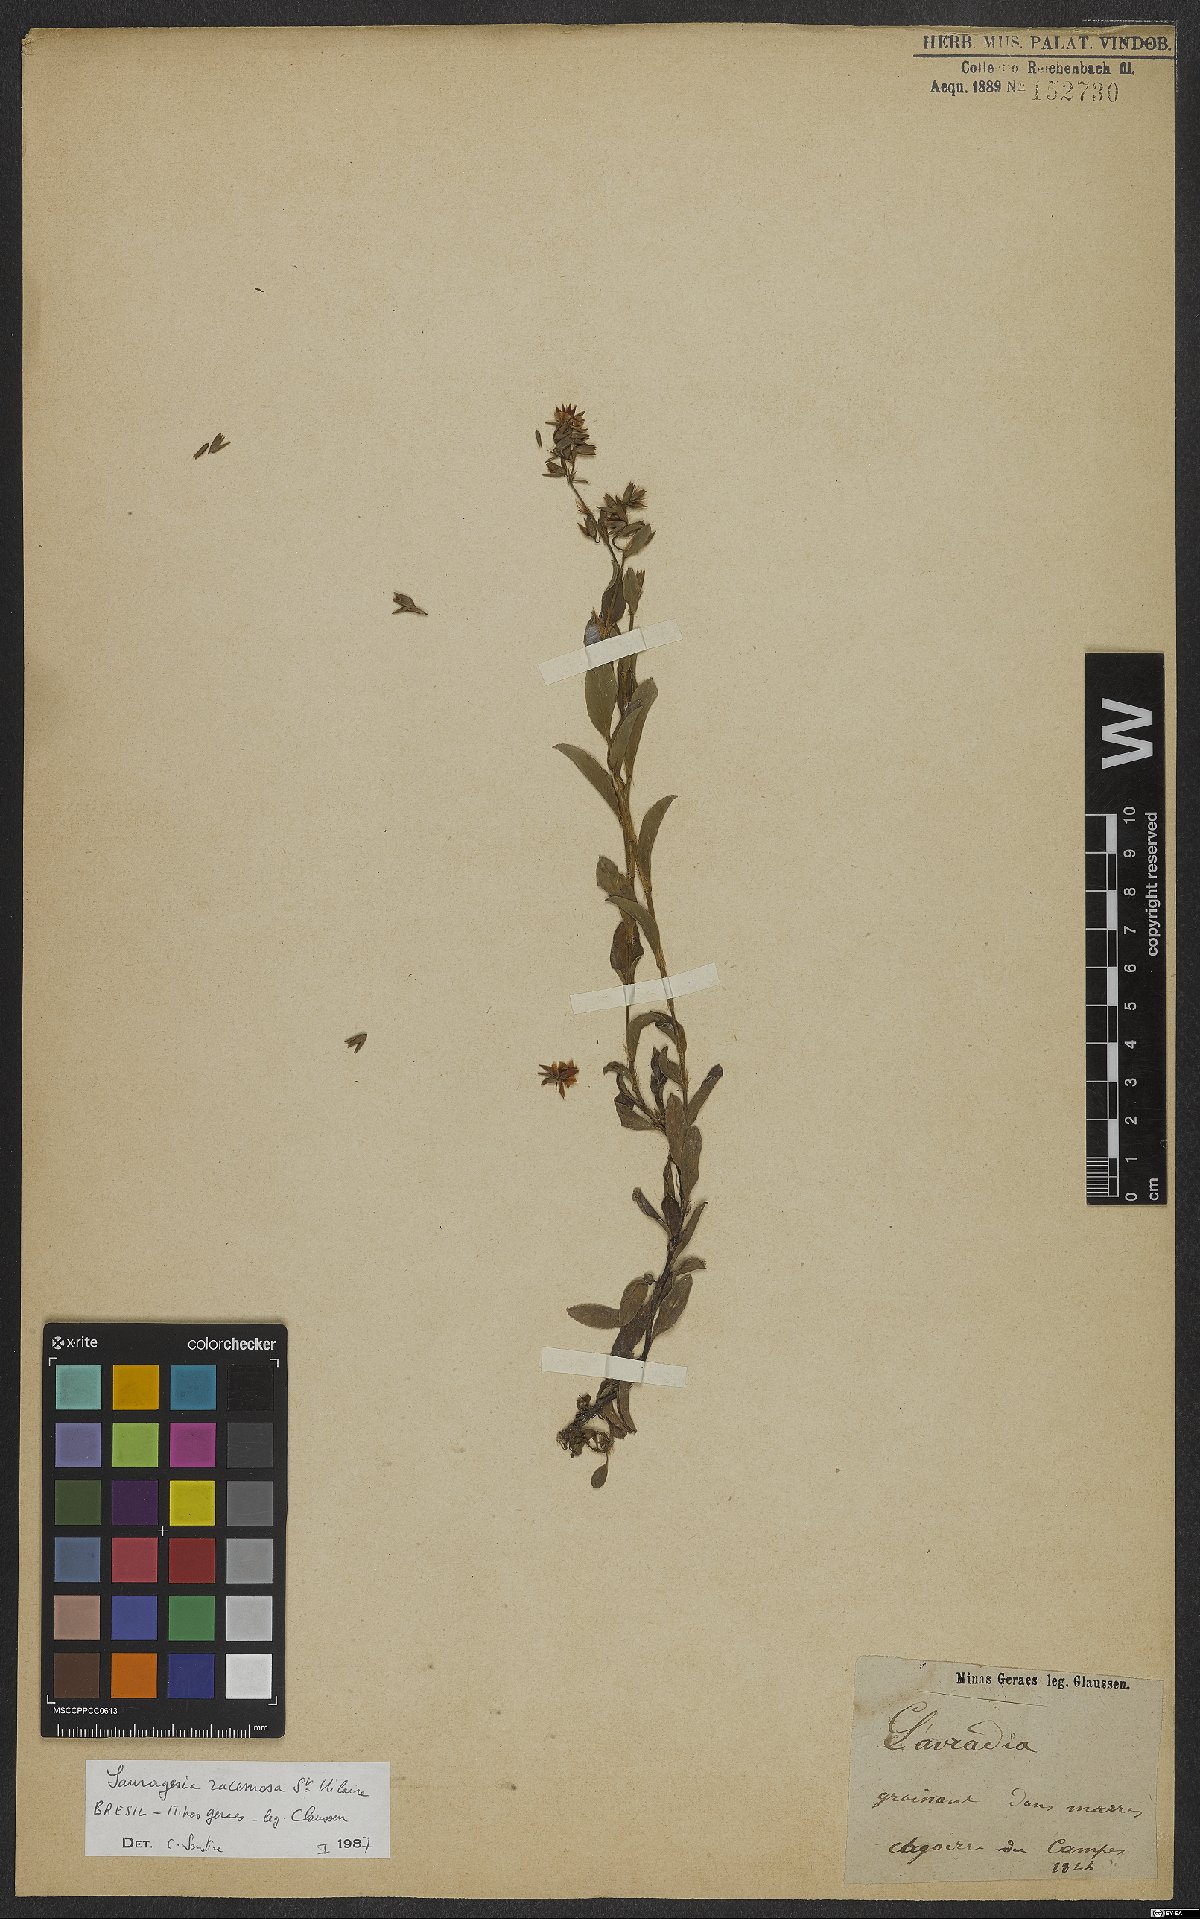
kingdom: Plantae
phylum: Tracheophyta
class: Magnoliopsida
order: Malpighiales
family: Ochnaceae
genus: Sauvagesia
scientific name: Sauvagesia racemosa
